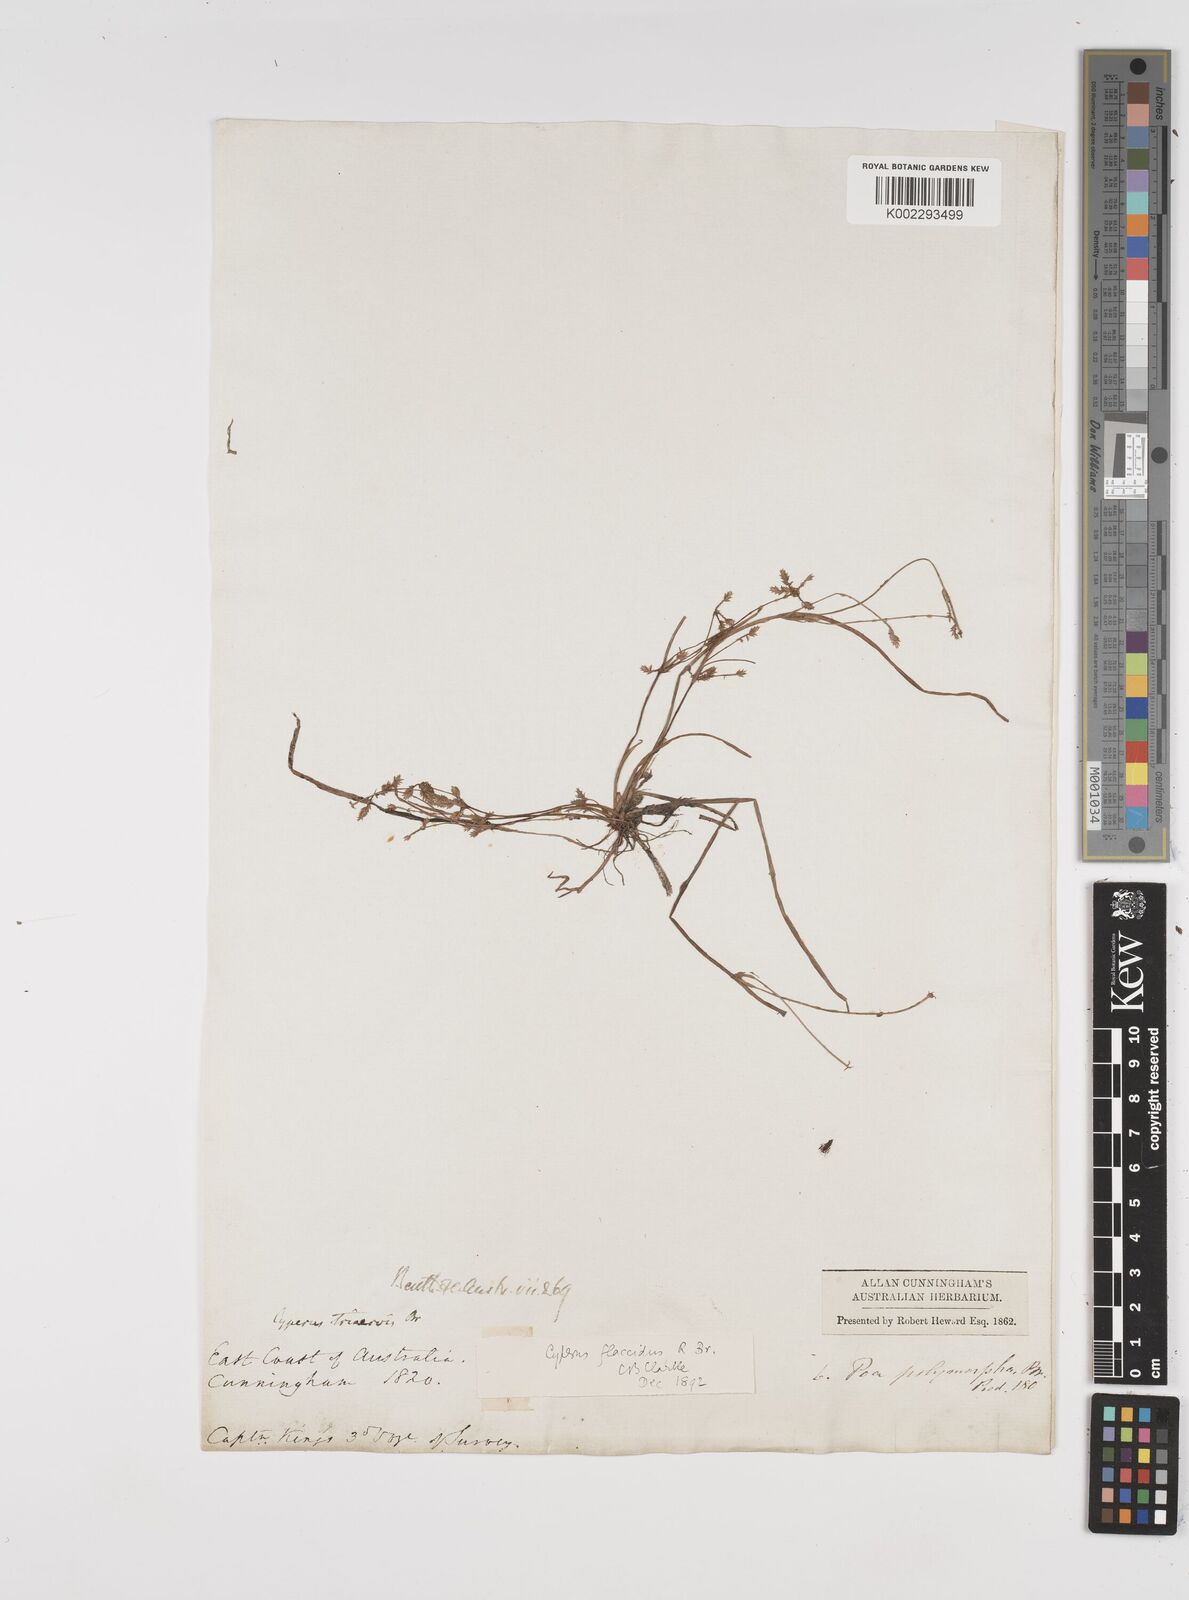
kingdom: Plantae
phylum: Tracheophyta
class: Liliopsida
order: Poales
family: Cyperaceae
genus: Cyperus
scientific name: Cyperus flaccidus
